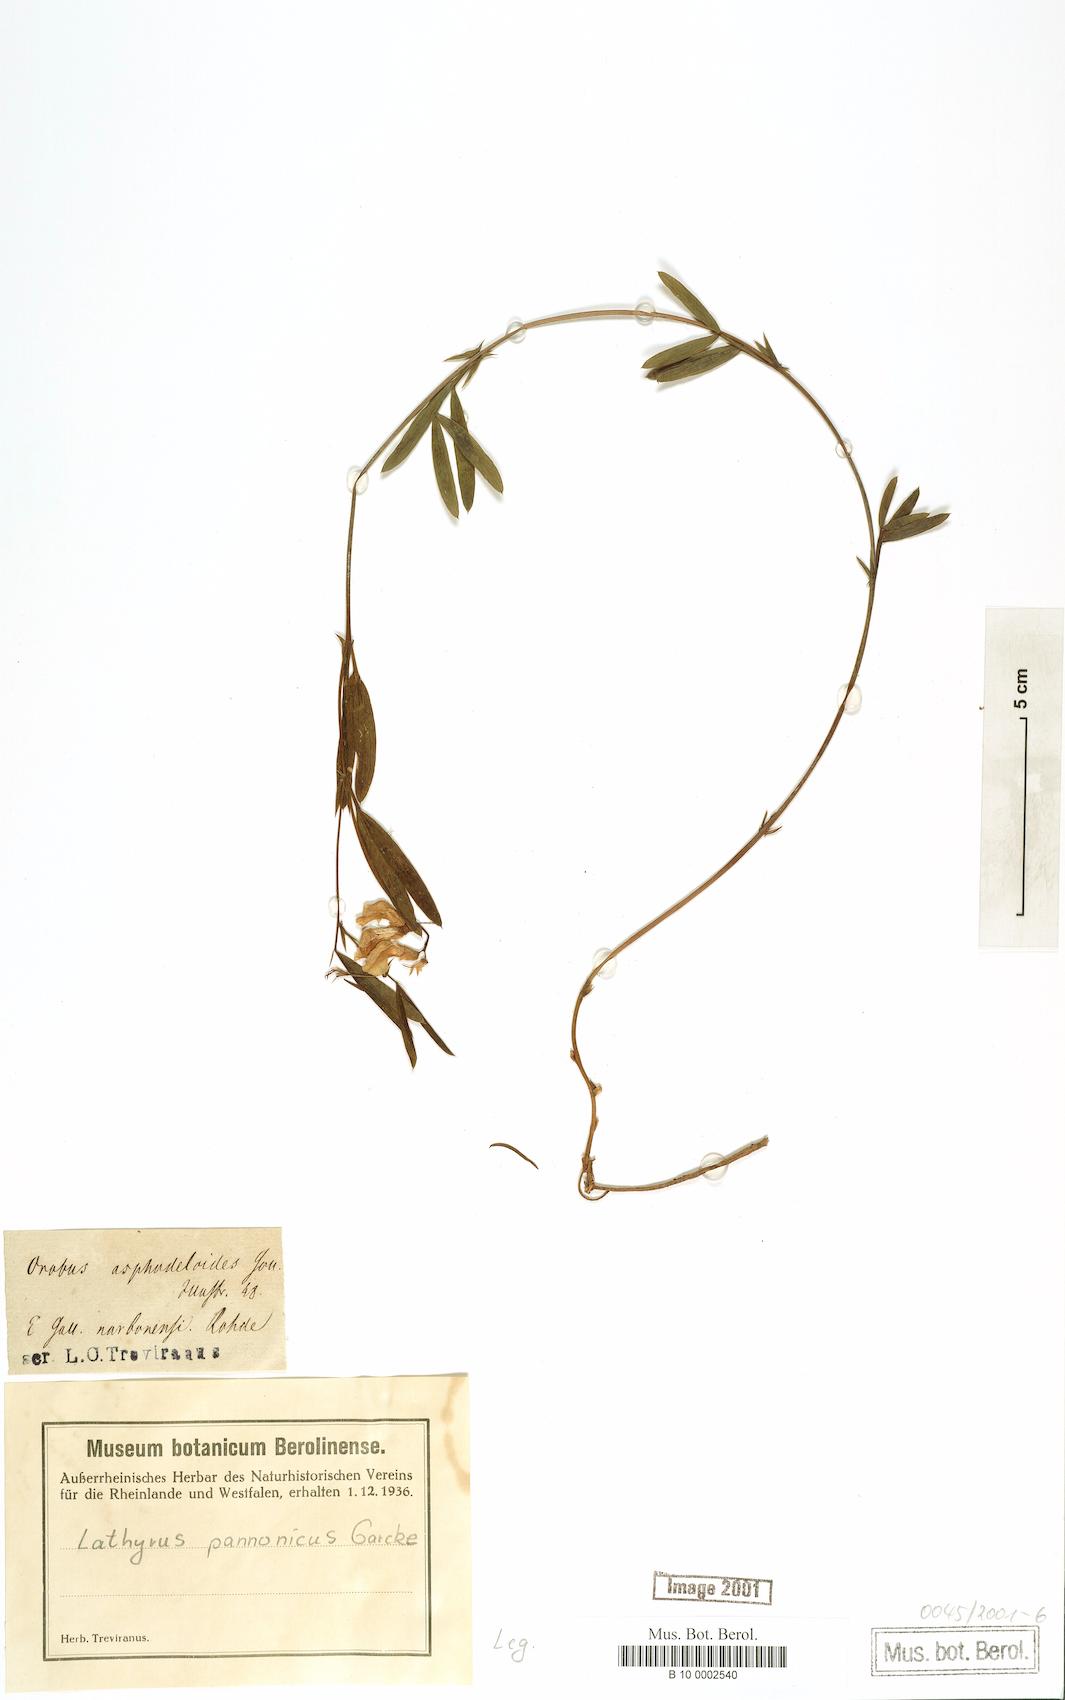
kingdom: Plantae
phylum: Tracheophyta
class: Magnoliopsida
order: Fabales
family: Fabaceae
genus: Lathyrus
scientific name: Lathyrus pannonicus
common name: Pea
